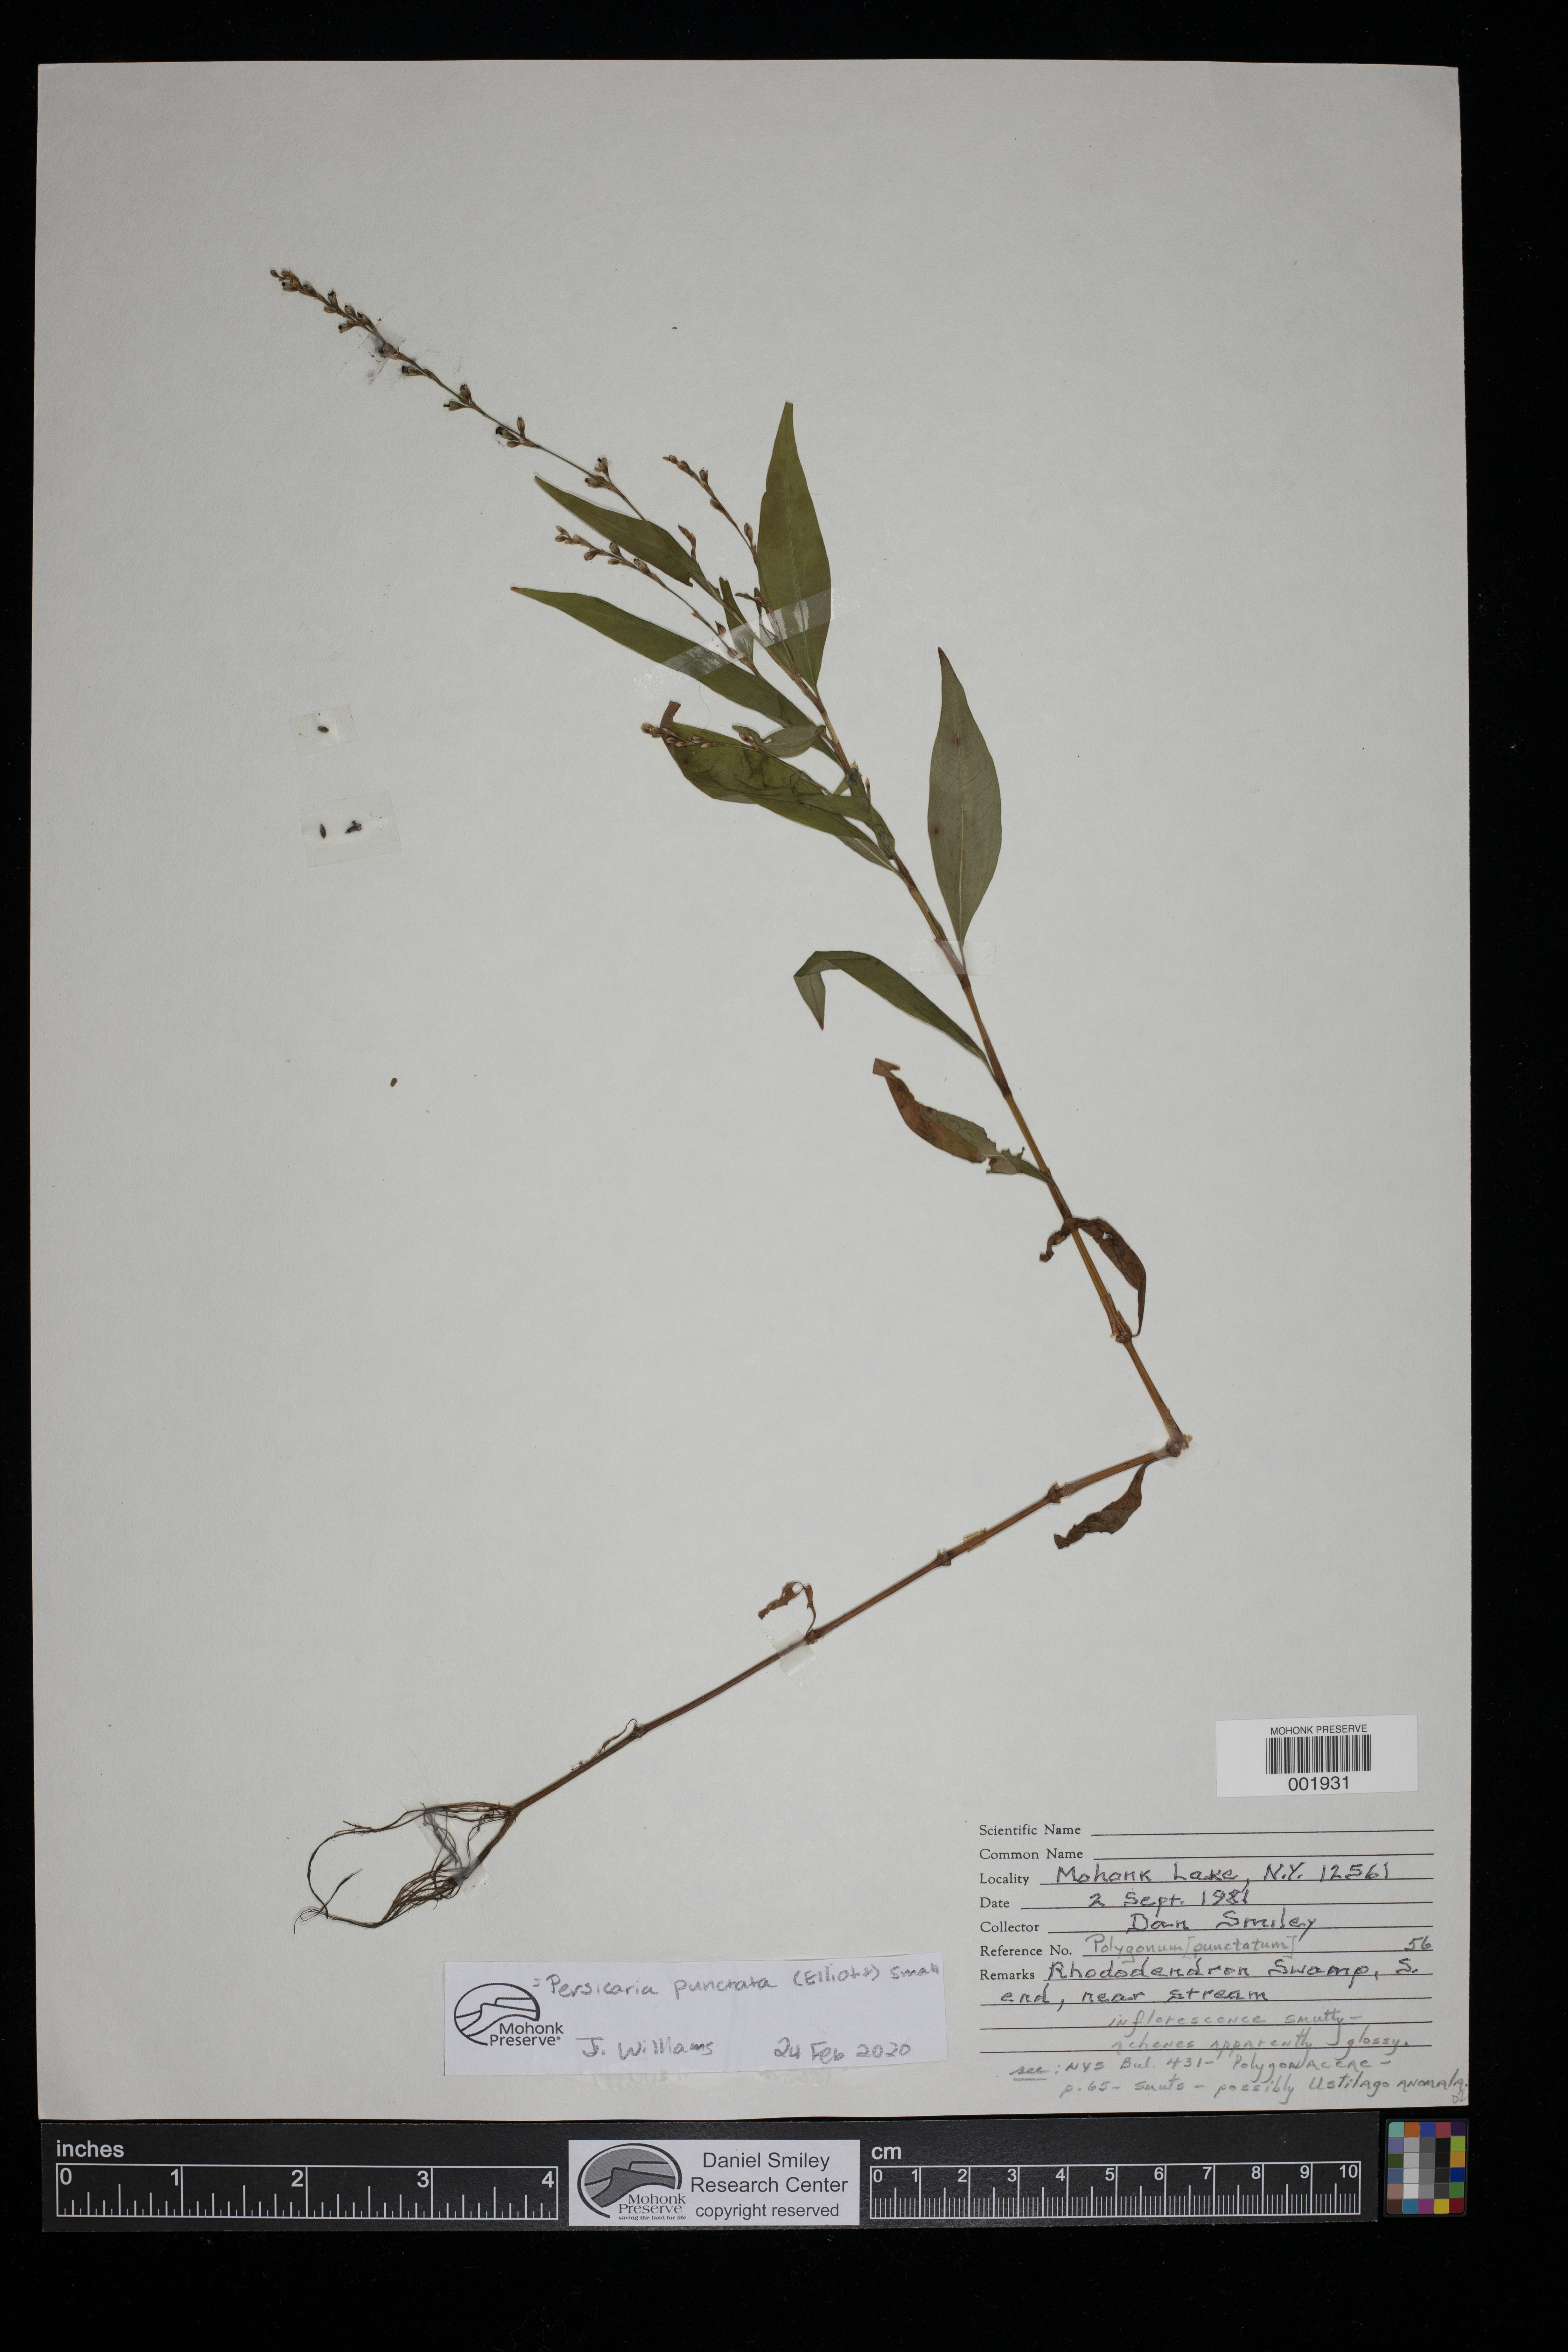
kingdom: Plantae
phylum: Tracheophyta
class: Magnoliopsida
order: Caryophyllales
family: Polygonaceae
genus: Persicaria
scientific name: Persicaria punctata
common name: Dotted smartweed
